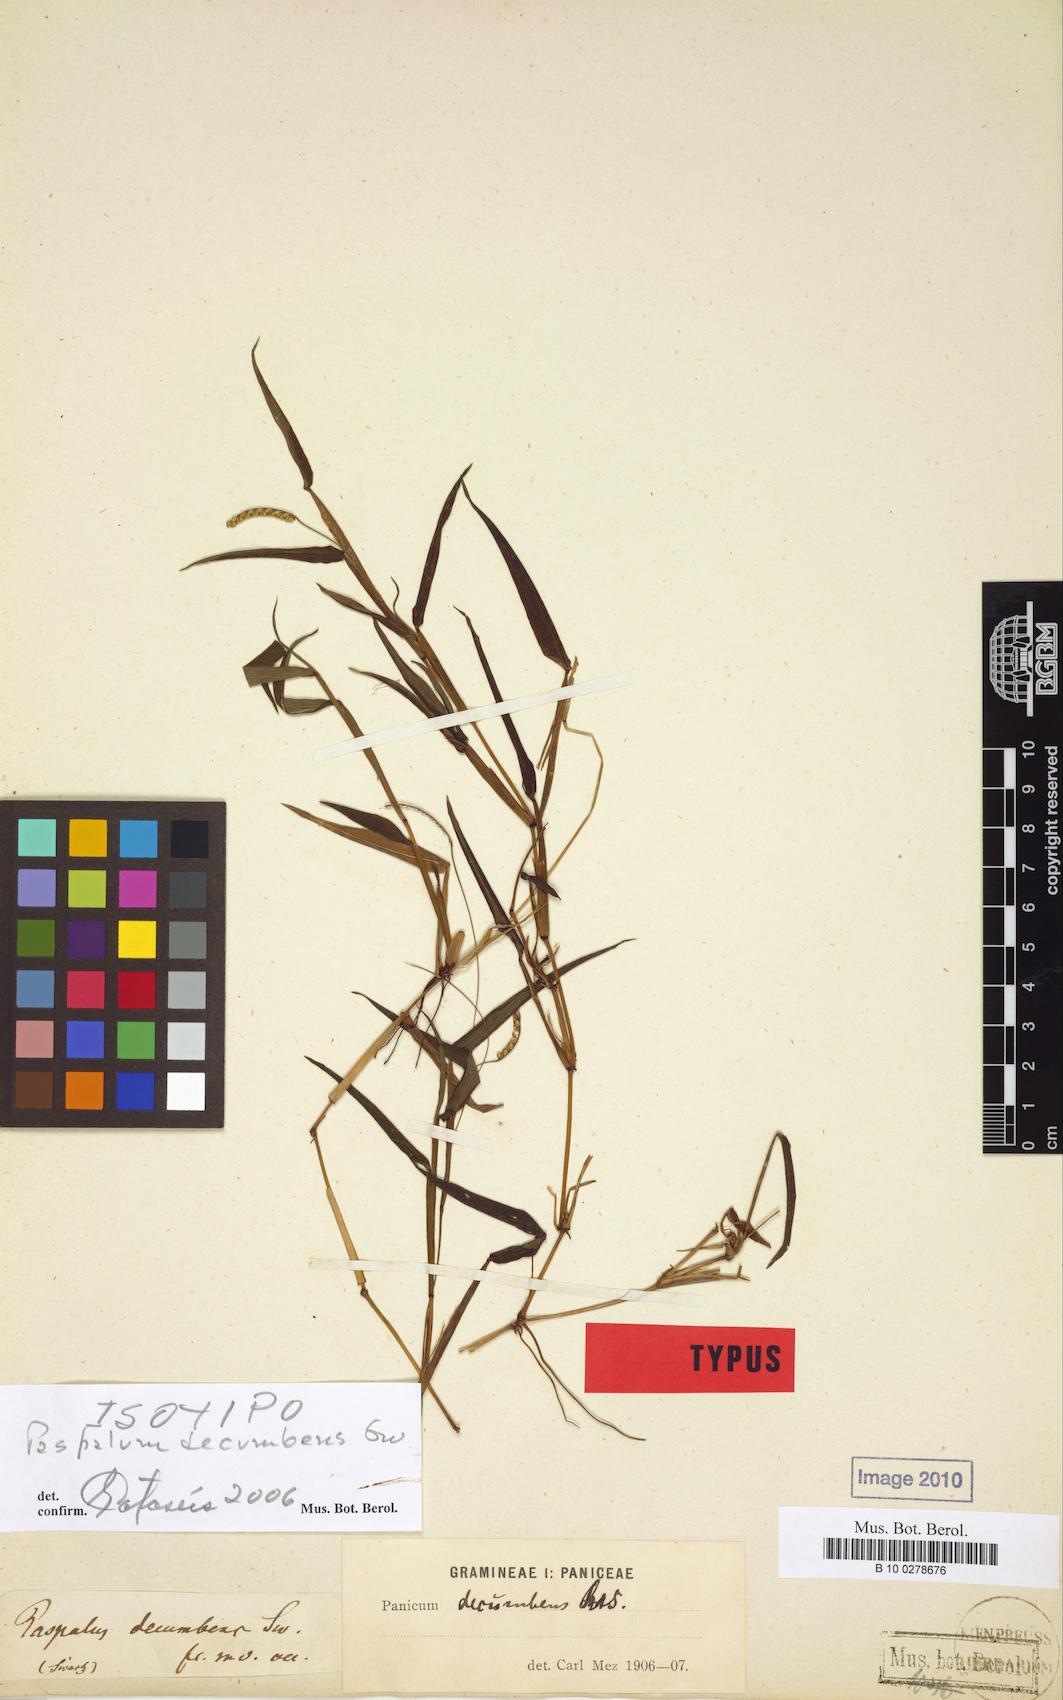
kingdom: Plantae
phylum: Tracheophyta
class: Liliopsida
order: Poales
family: Poaceae
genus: Paspalum
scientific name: Paspalum decumbens
